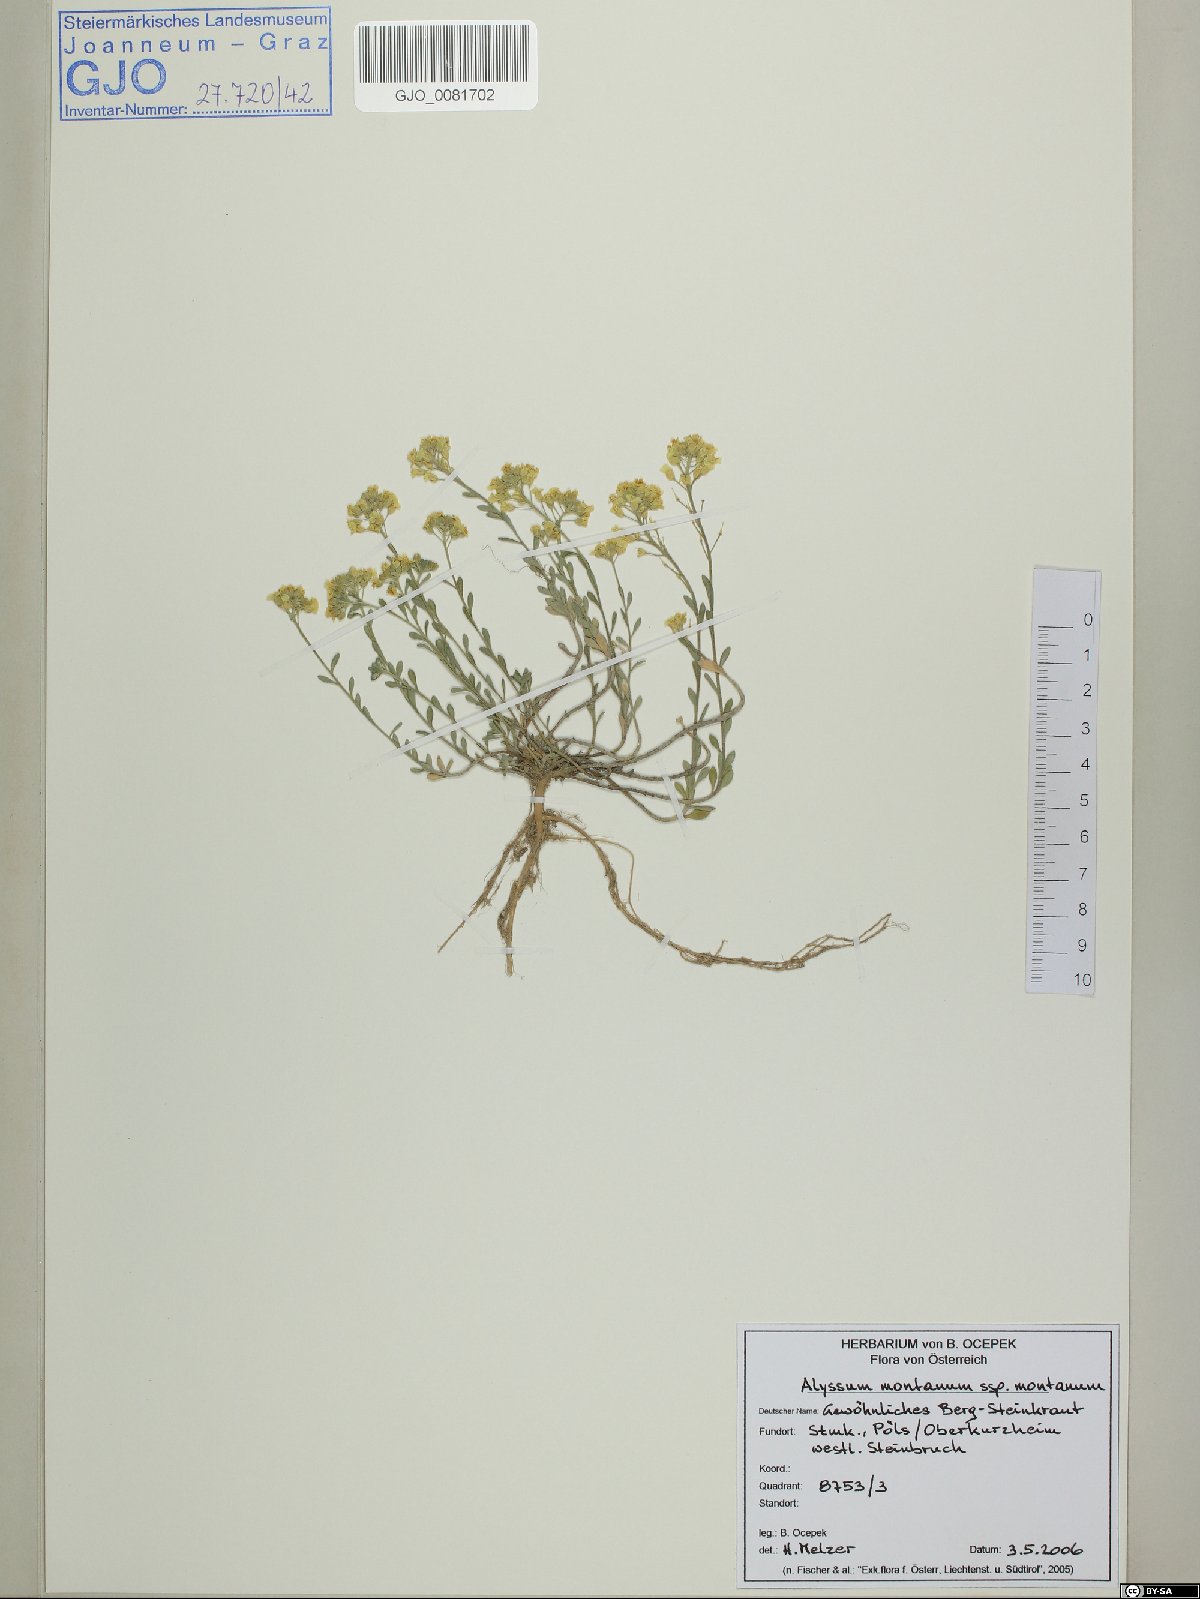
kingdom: Plantae
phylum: Tracheophyta
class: Magnoliopsida
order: Brassicales
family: Brassicaceae
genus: Alyssum
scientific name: Alyssum montanum
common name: Mountain alison
